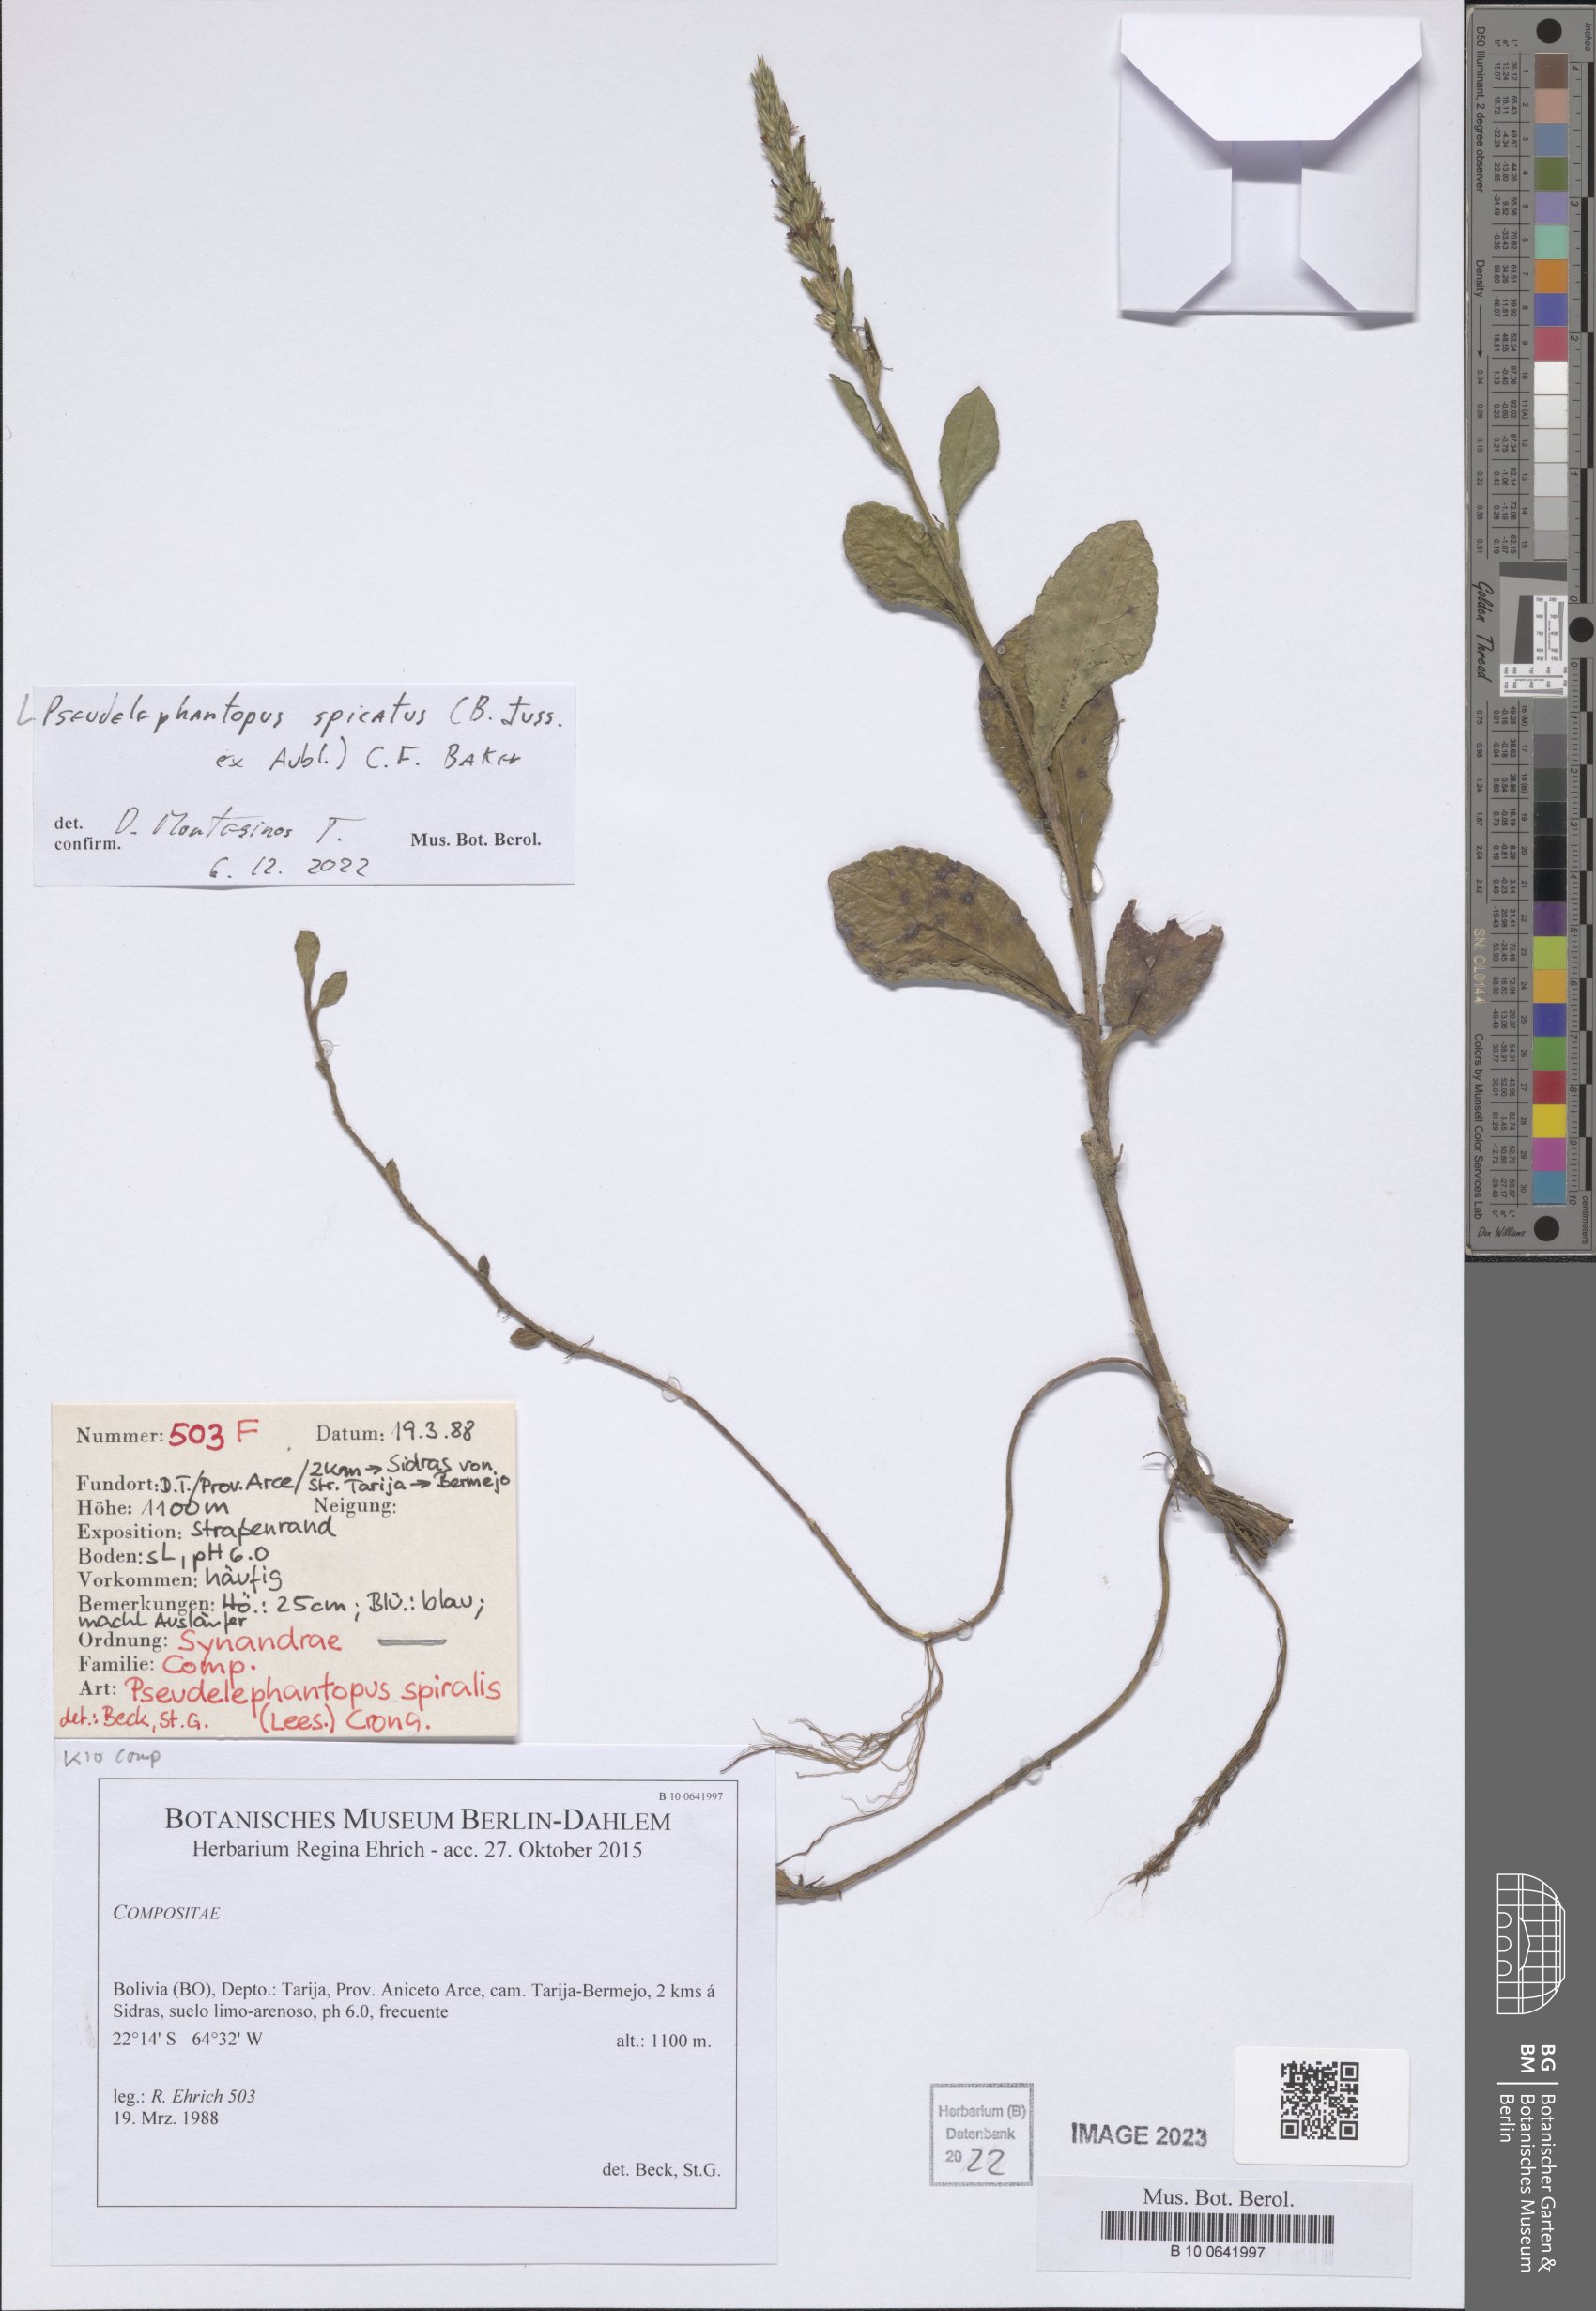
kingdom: Plantae
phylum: Tracheophyta
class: Magnoliopsida
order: Asterales
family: Asteraceae
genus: Pseudelephantopus
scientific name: Pseudelephantopus spicatus
